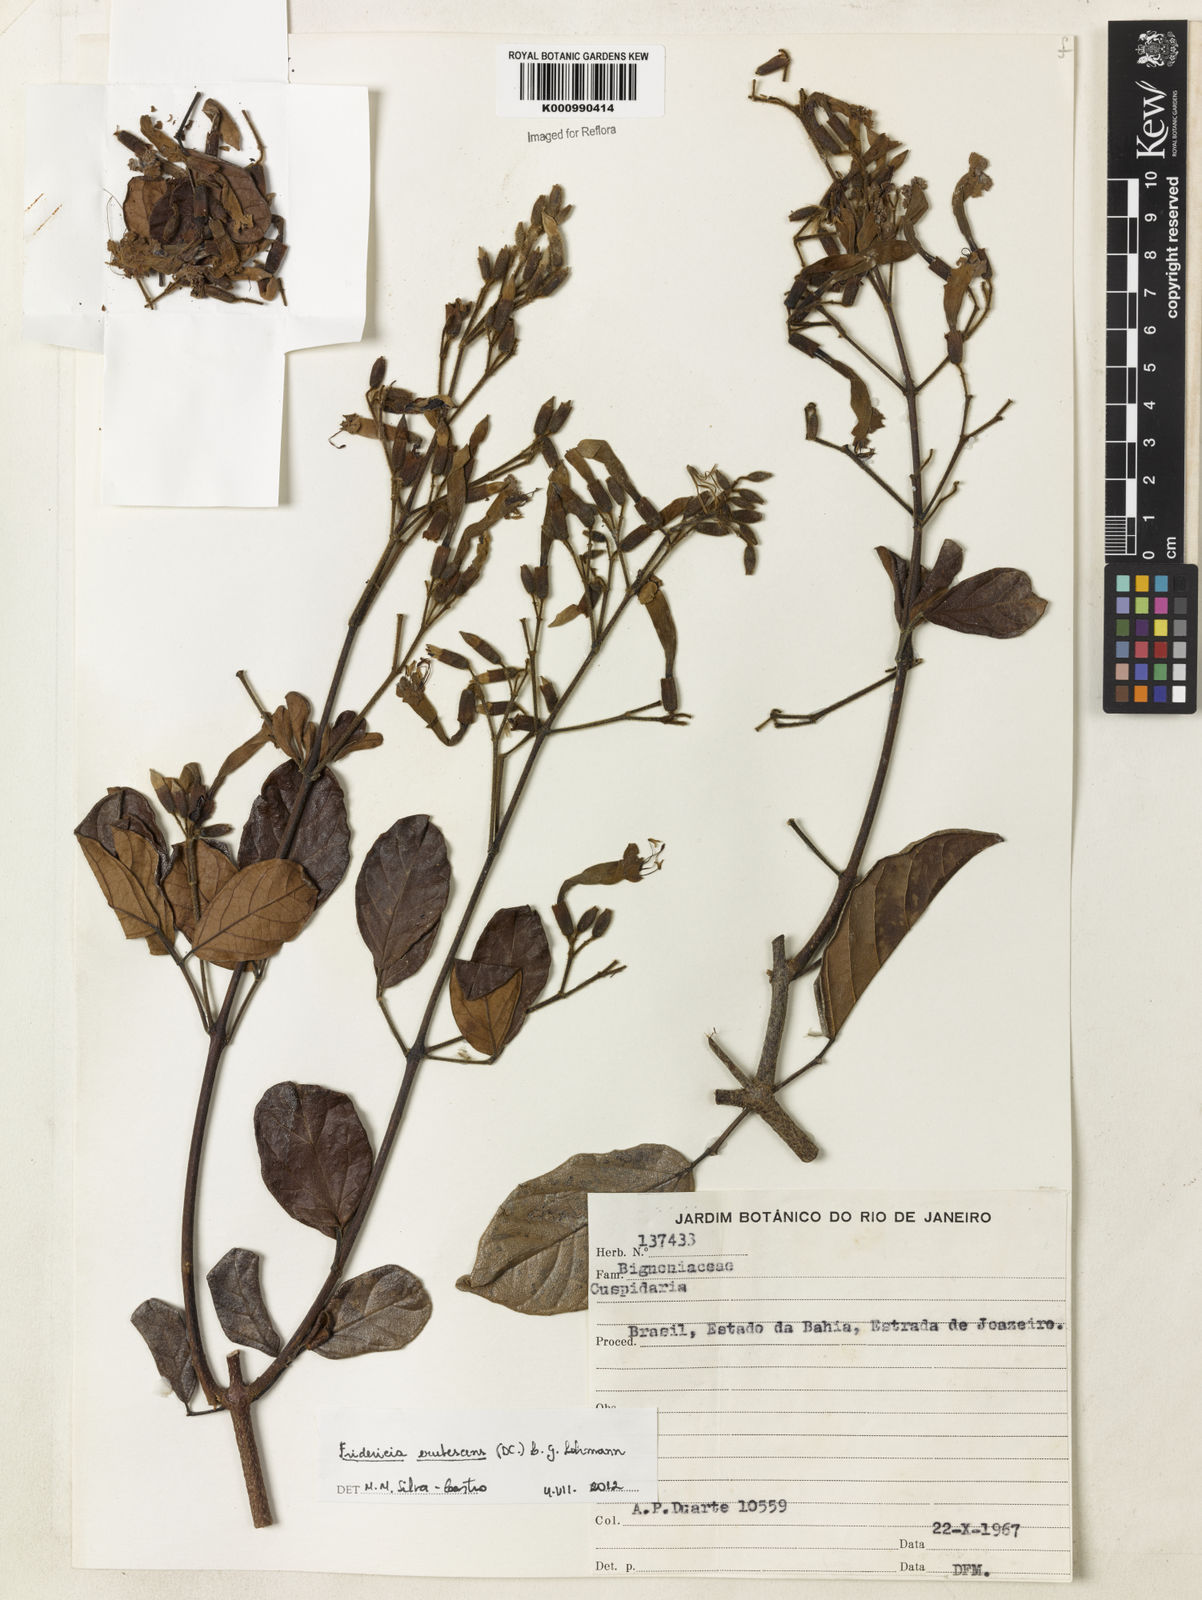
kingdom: Plantae
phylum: Tracheophyta
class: Magnoliopsida
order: Lamiales
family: Bignoniaceae
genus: Fridericia
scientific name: Fridericia erubescens
